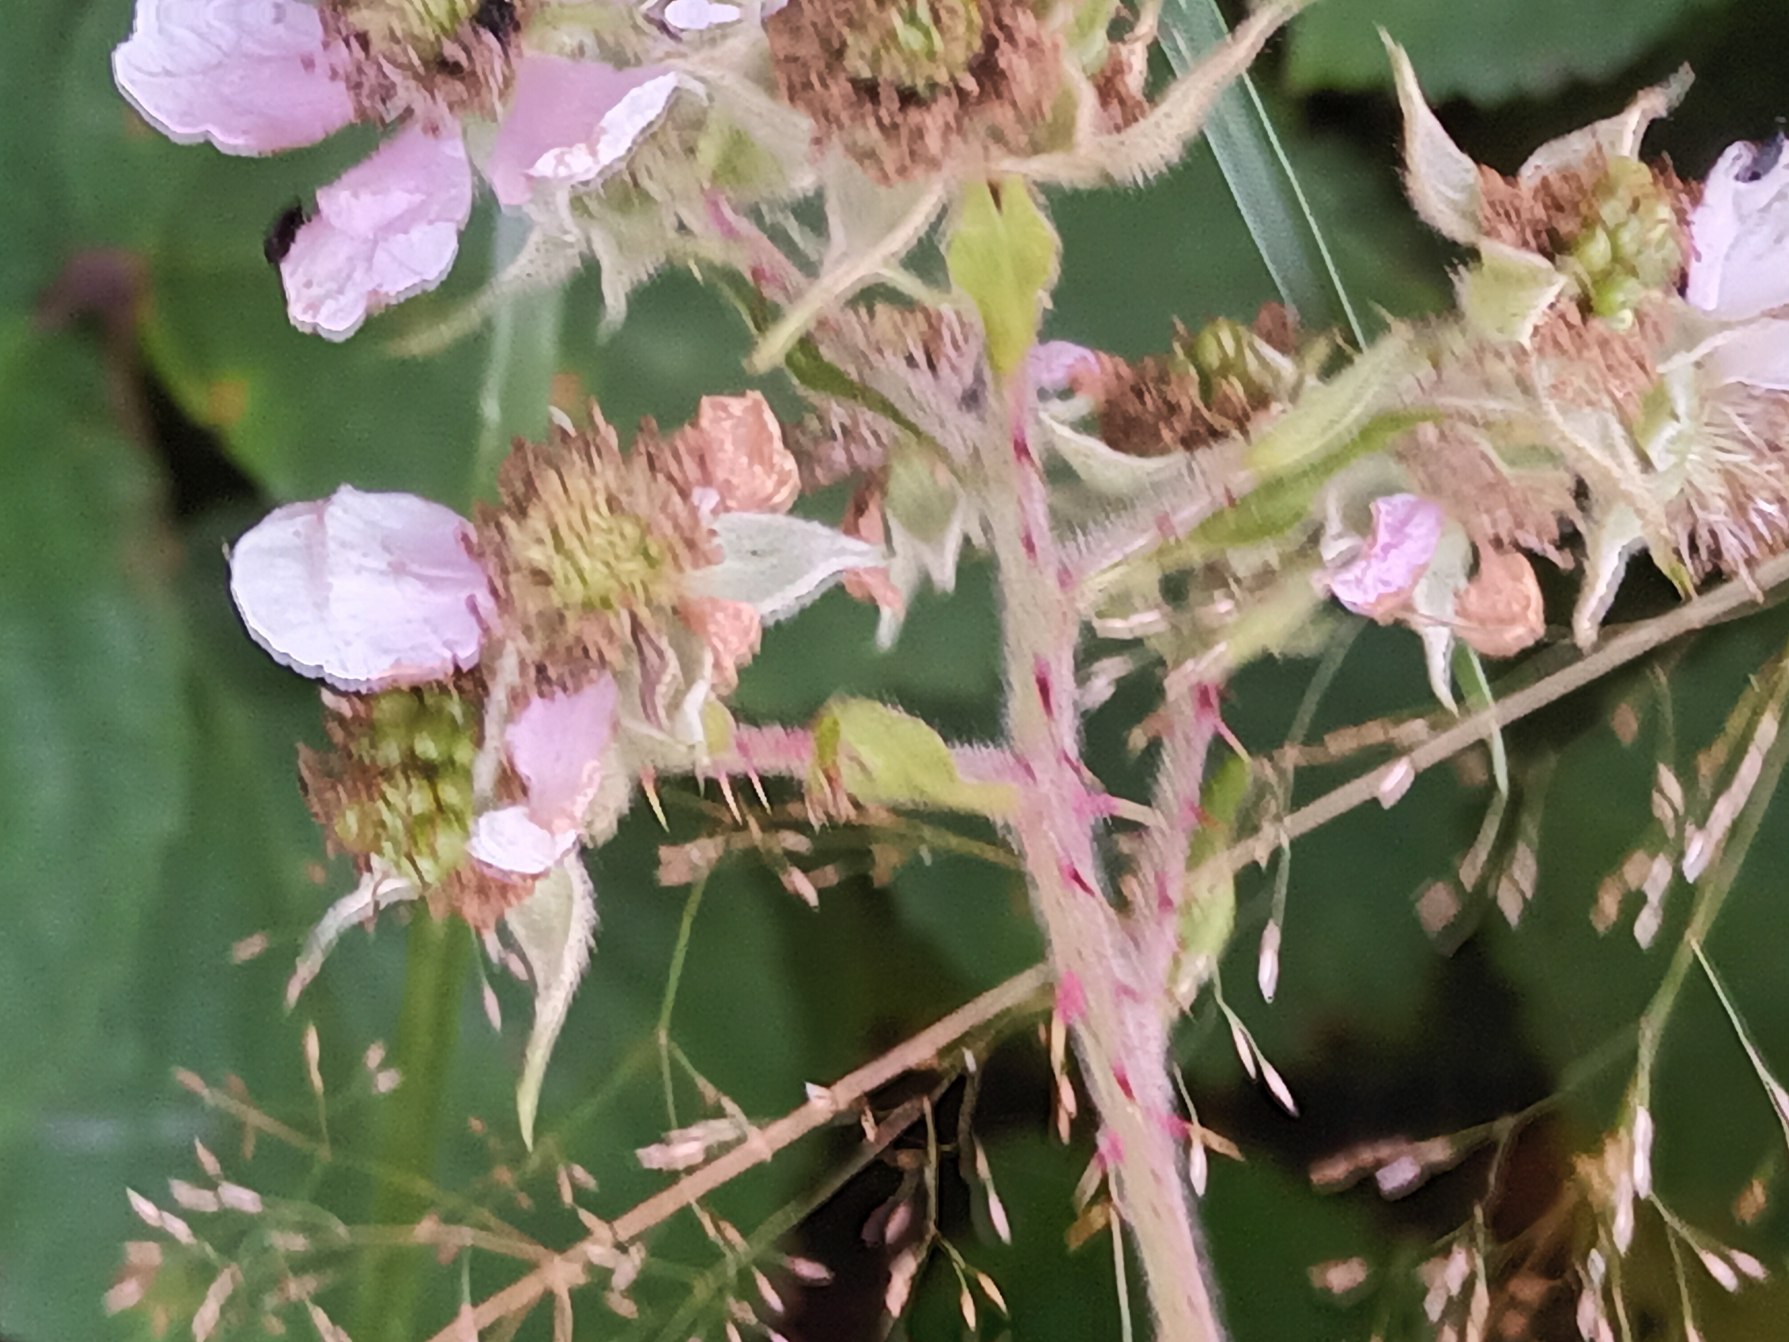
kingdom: Plantae
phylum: Tracheophyta
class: Magnoliopsida
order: Rosales
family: Rosaceae
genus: Rubus
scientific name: Rubus axillaris
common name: Skåne-brombær
